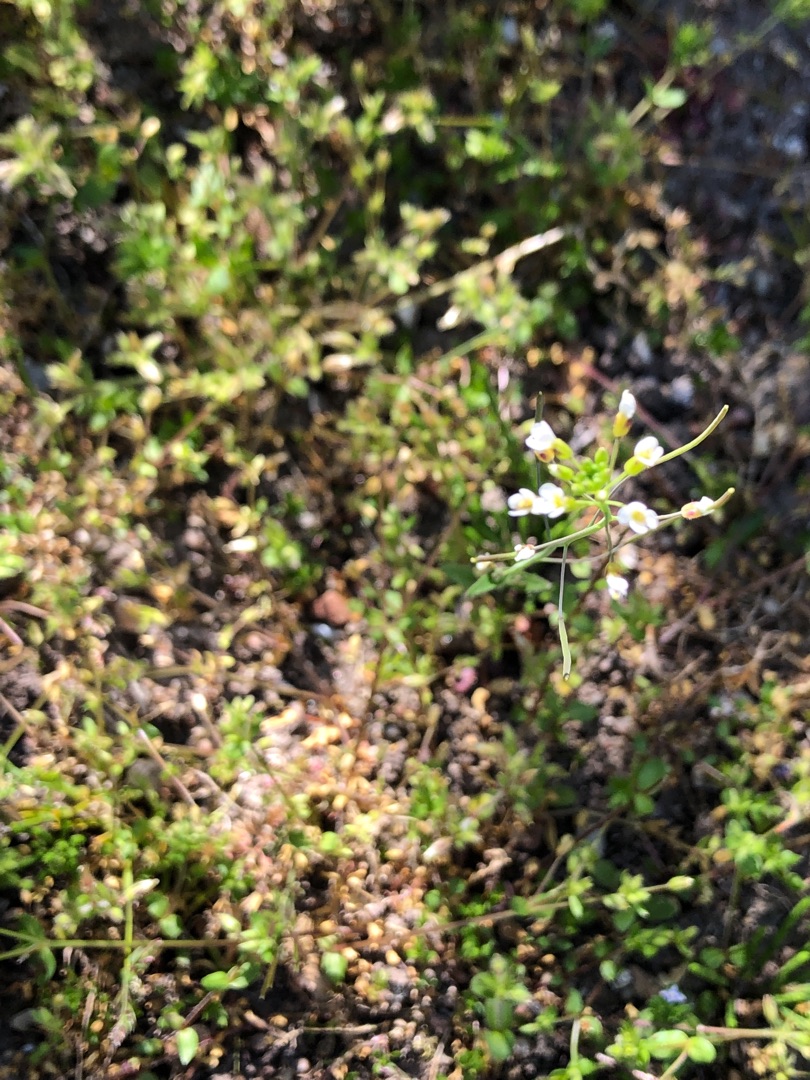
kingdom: Plantae
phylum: Tracheophyta
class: Magnoliopsida
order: Brassicales
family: Brassicaceae
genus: Arabidopsis
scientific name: Arabidopsis thaliana
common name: Almindelig gåsemad
